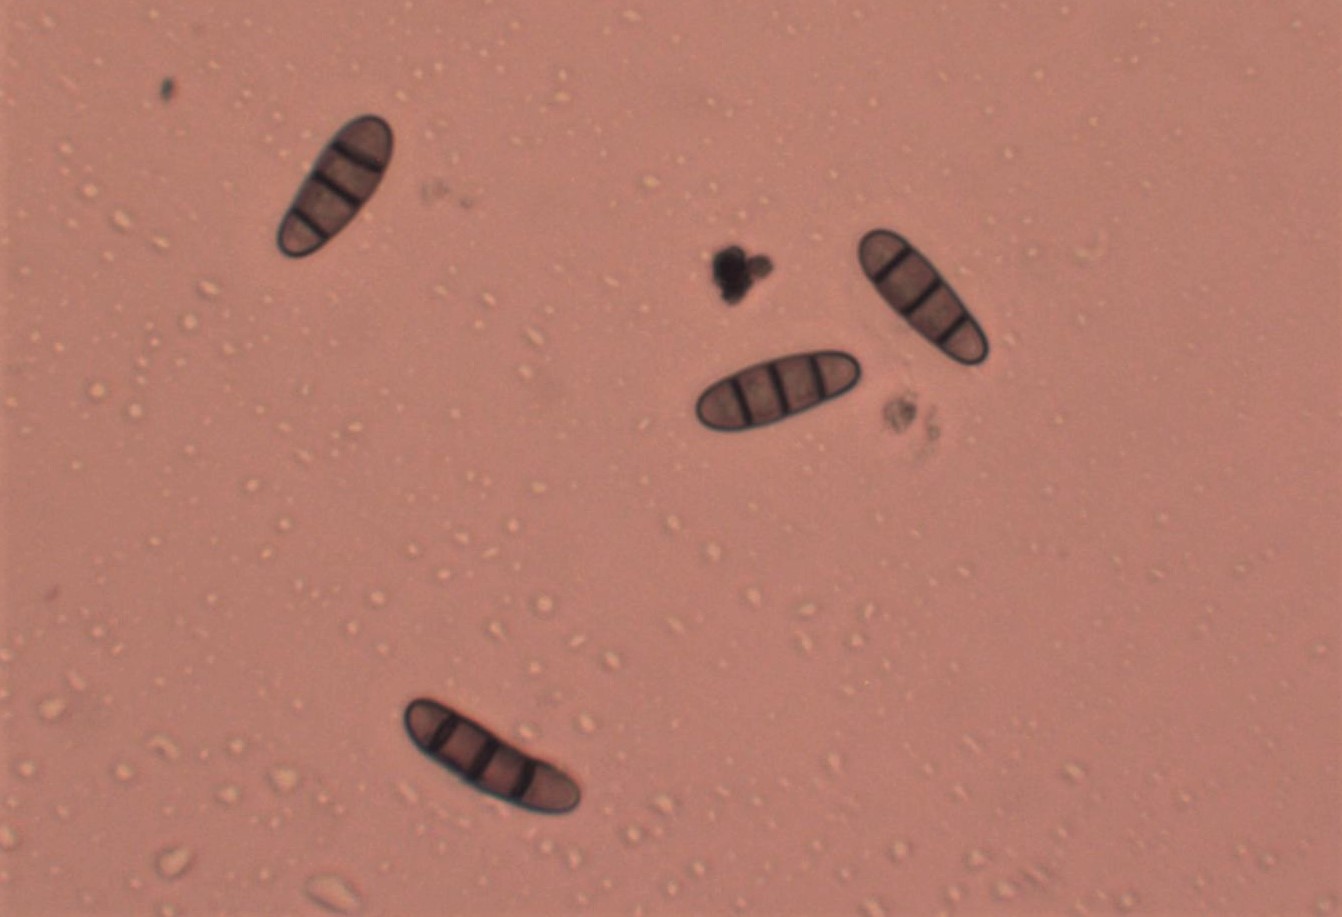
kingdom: Fungi
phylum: Ascomycota
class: Dothideomycetes
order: Hysteriales
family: Hysteriaceae
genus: Hysterium
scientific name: Hysterium acuminatum
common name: almindelig kulmund
